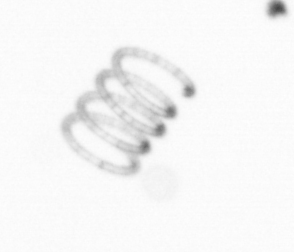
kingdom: Chromista
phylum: Ochrophyta
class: Bacillariophyceae
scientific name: Bacillariophyceae
